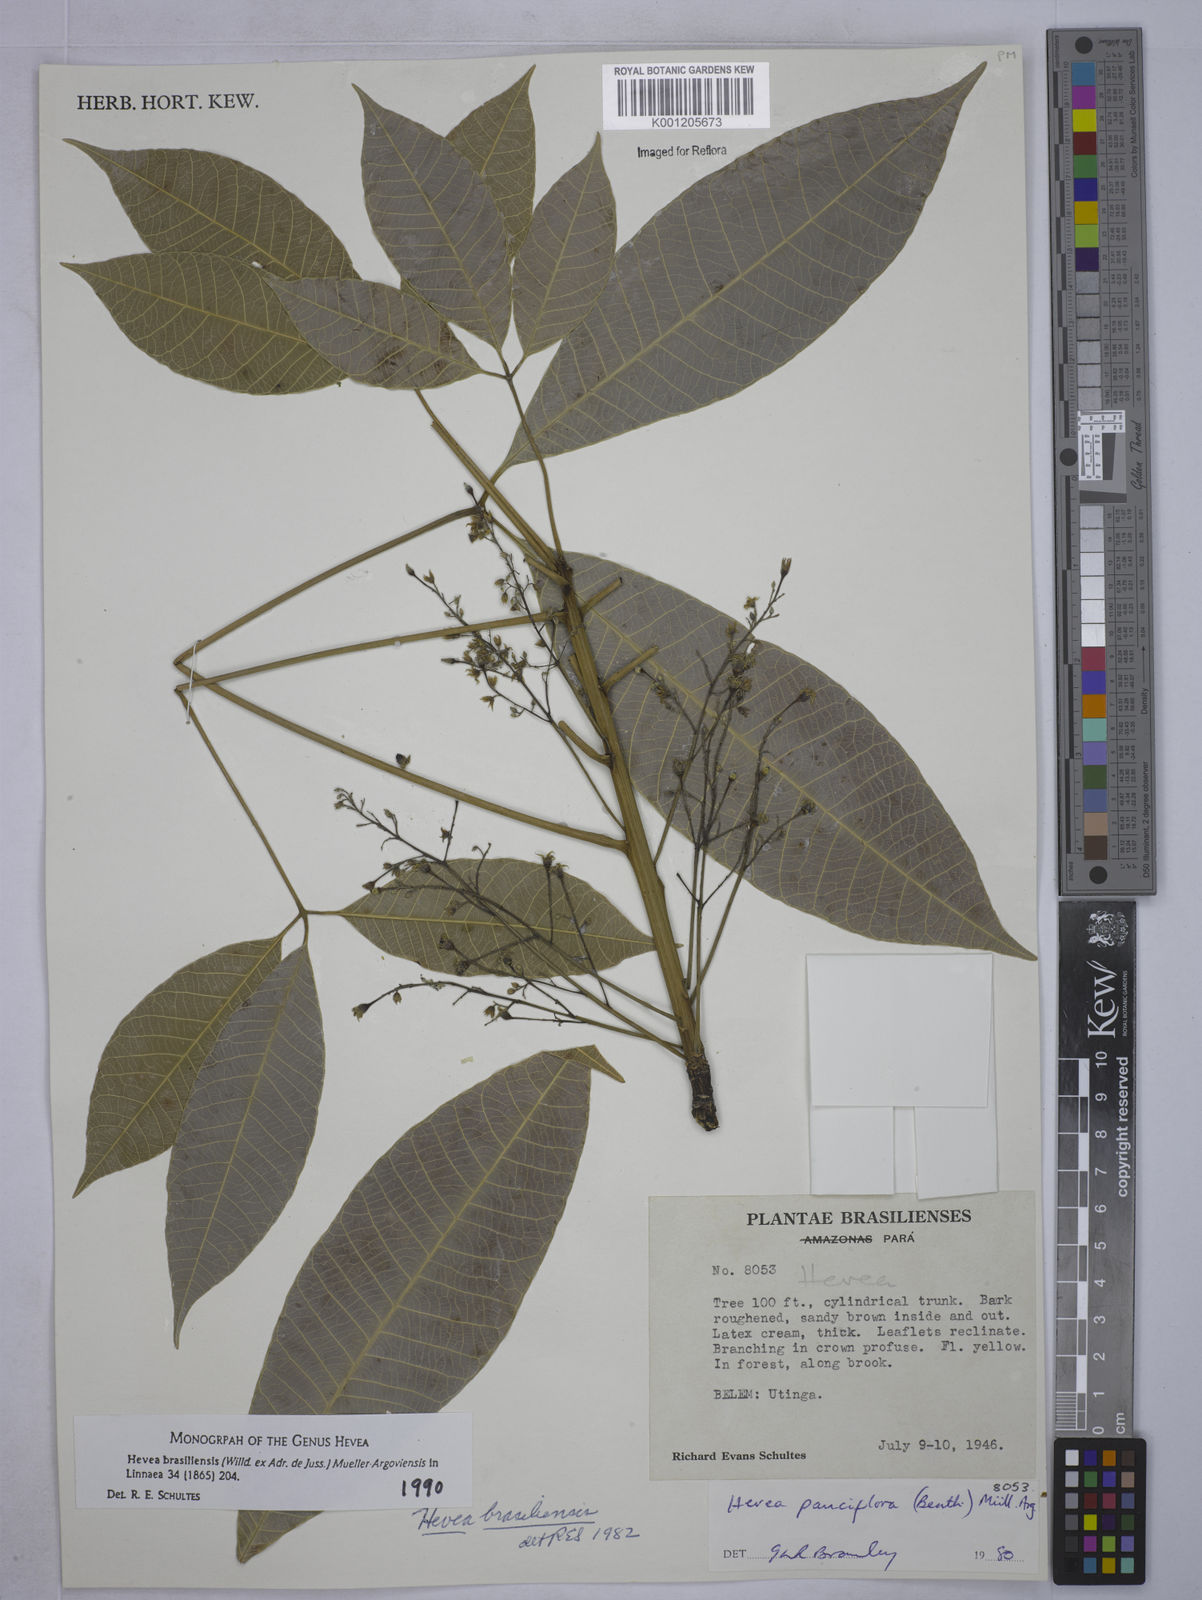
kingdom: Plantae
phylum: Tracheophyta
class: Magnoliopsida
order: Malpighiales
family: Euphorbiaceae
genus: Hevea
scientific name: Hevea pauciflora
